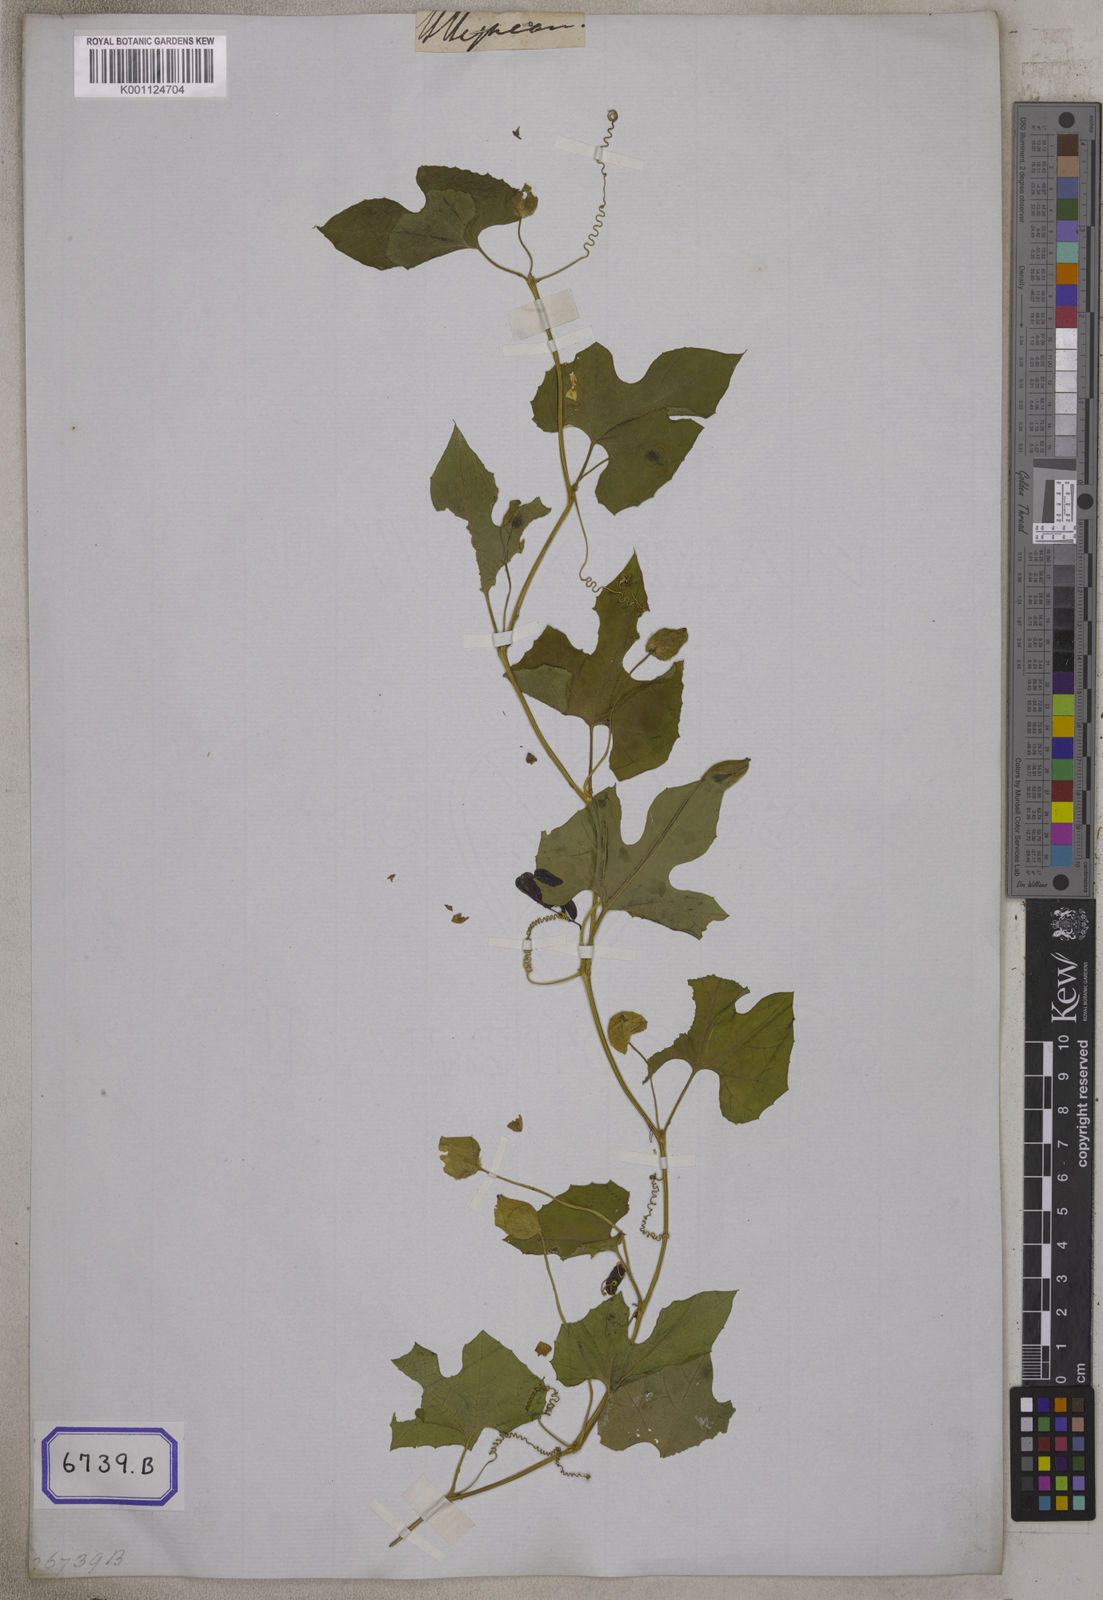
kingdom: Plantae
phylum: Tracheophyta
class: Magnoliopsida
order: Cucurbitales
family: Cucurbitaceae
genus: Momordica
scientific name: Momordica dioica
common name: Spine gourd
